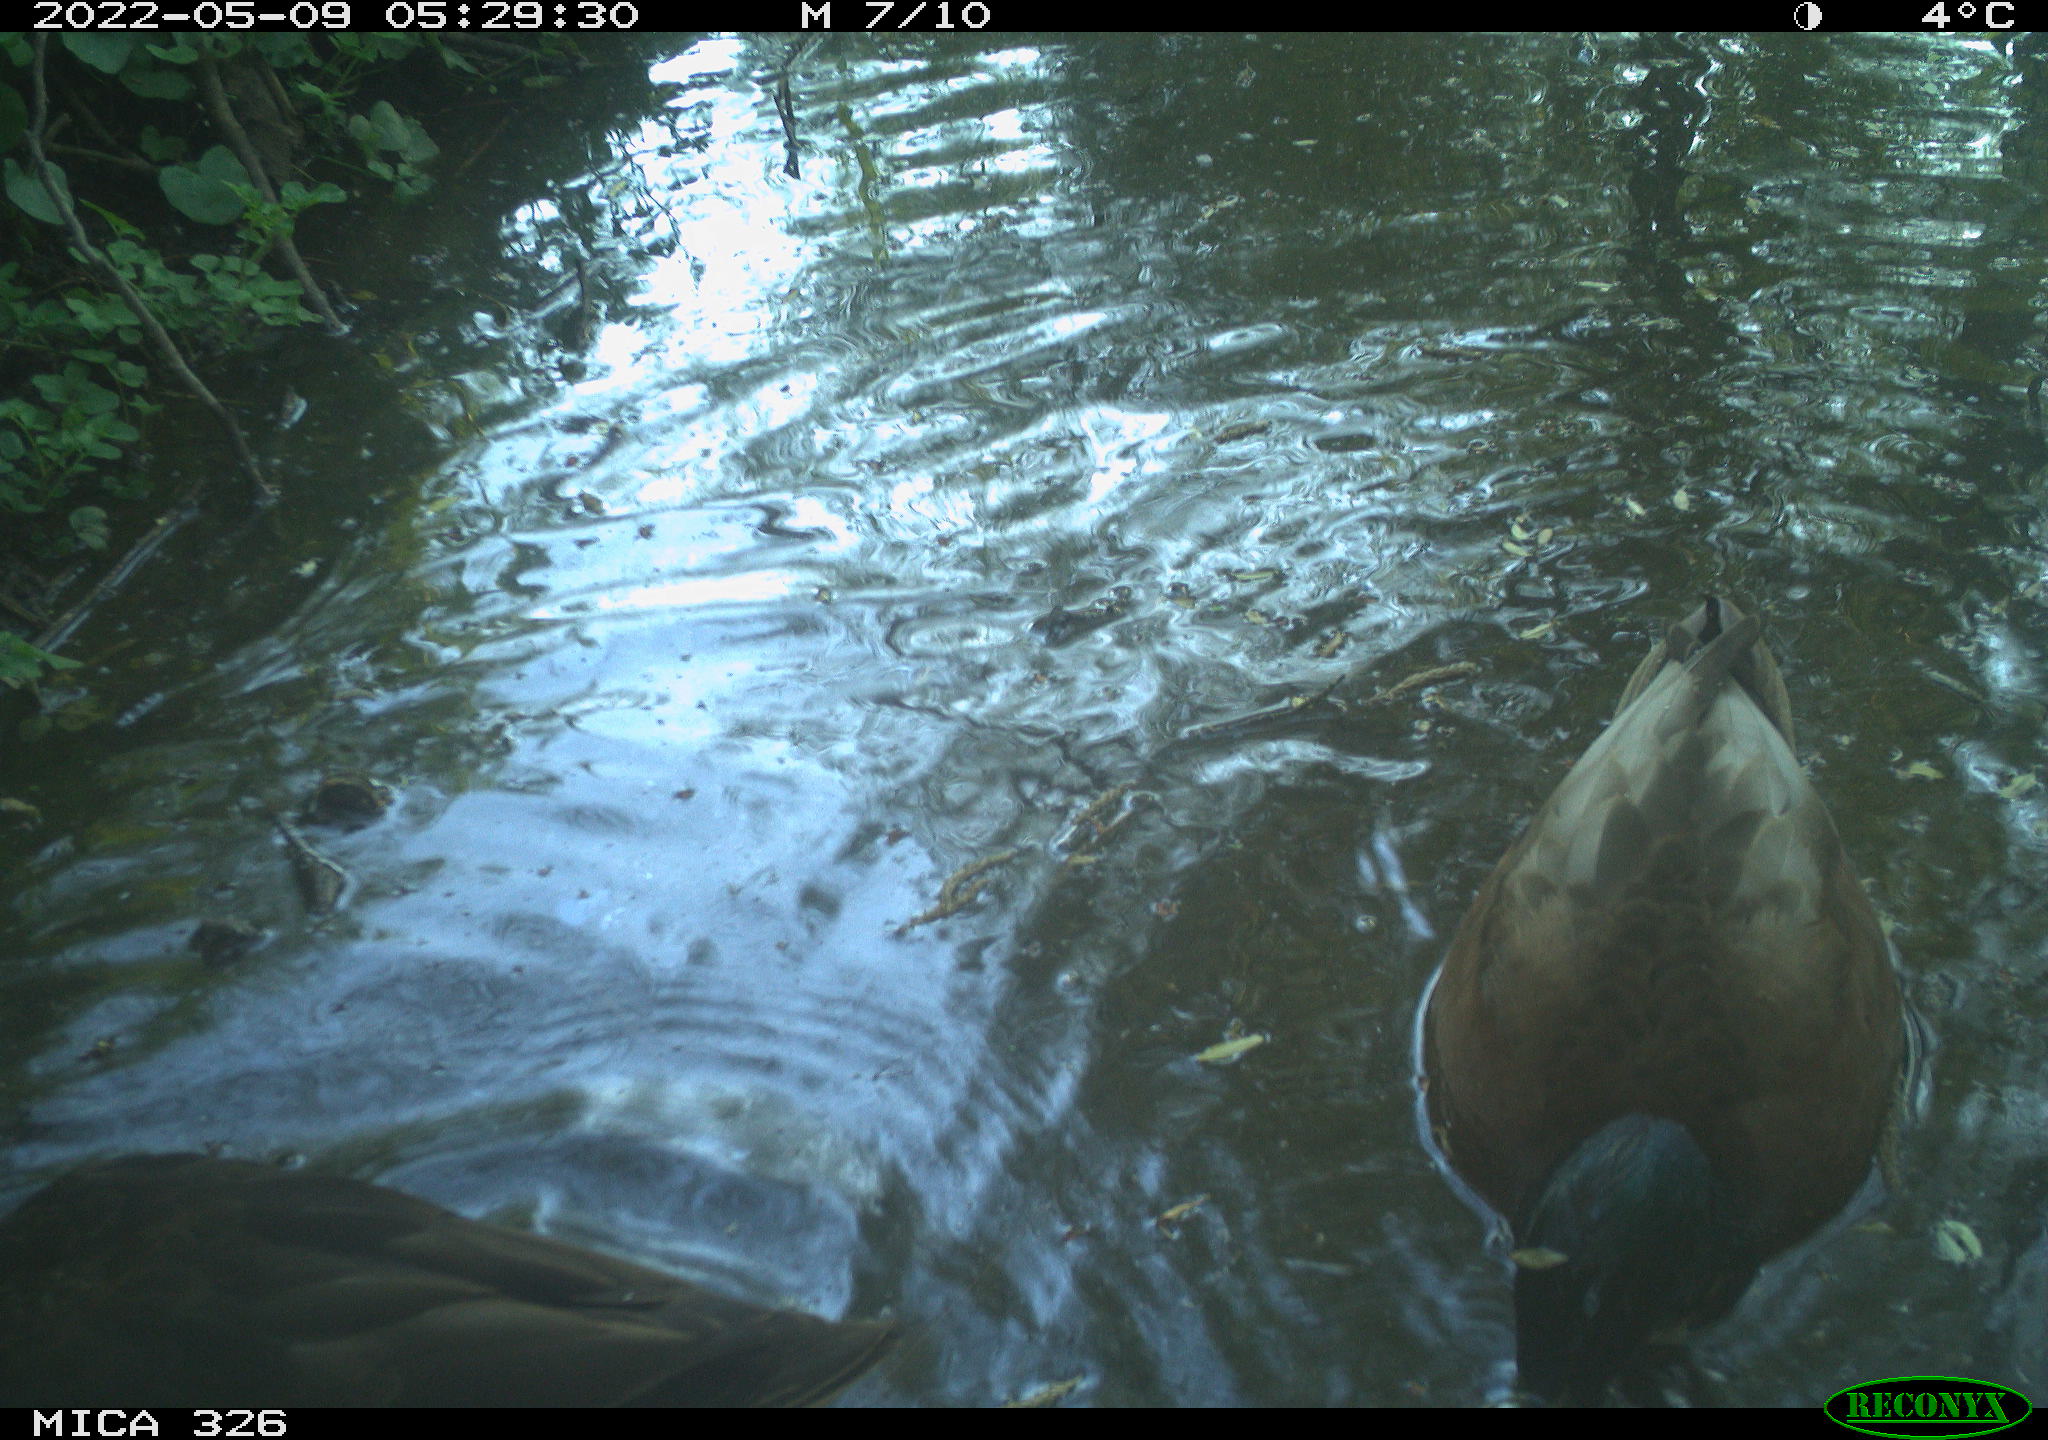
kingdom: Animalia
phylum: Chordata
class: Aves
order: Anseriformes
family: Anatidae
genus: Anas
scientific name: Anas platyrhynchos
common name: Mallard
